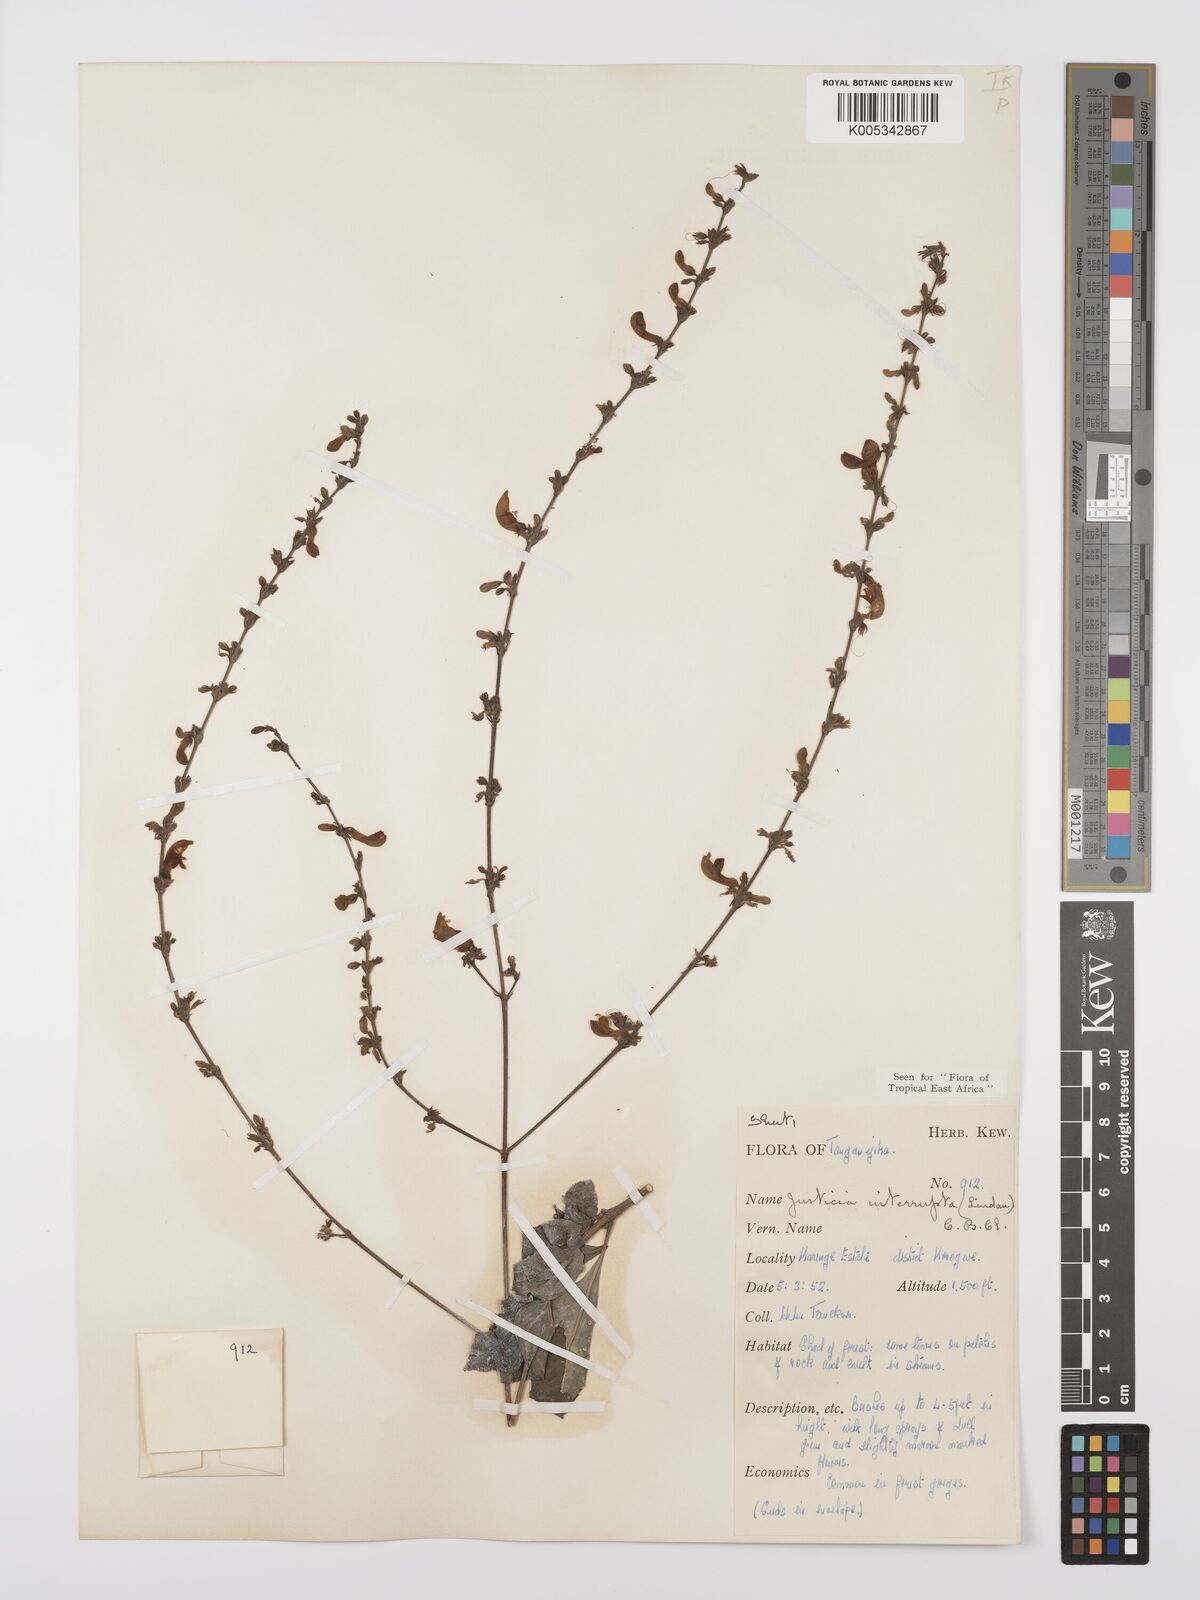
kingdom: Plantae
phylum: Tracheophyta
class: Magnoliopsida
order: Lamiales
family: Acanthaceae
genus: Justicia
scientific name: Justicia plectranthoides
